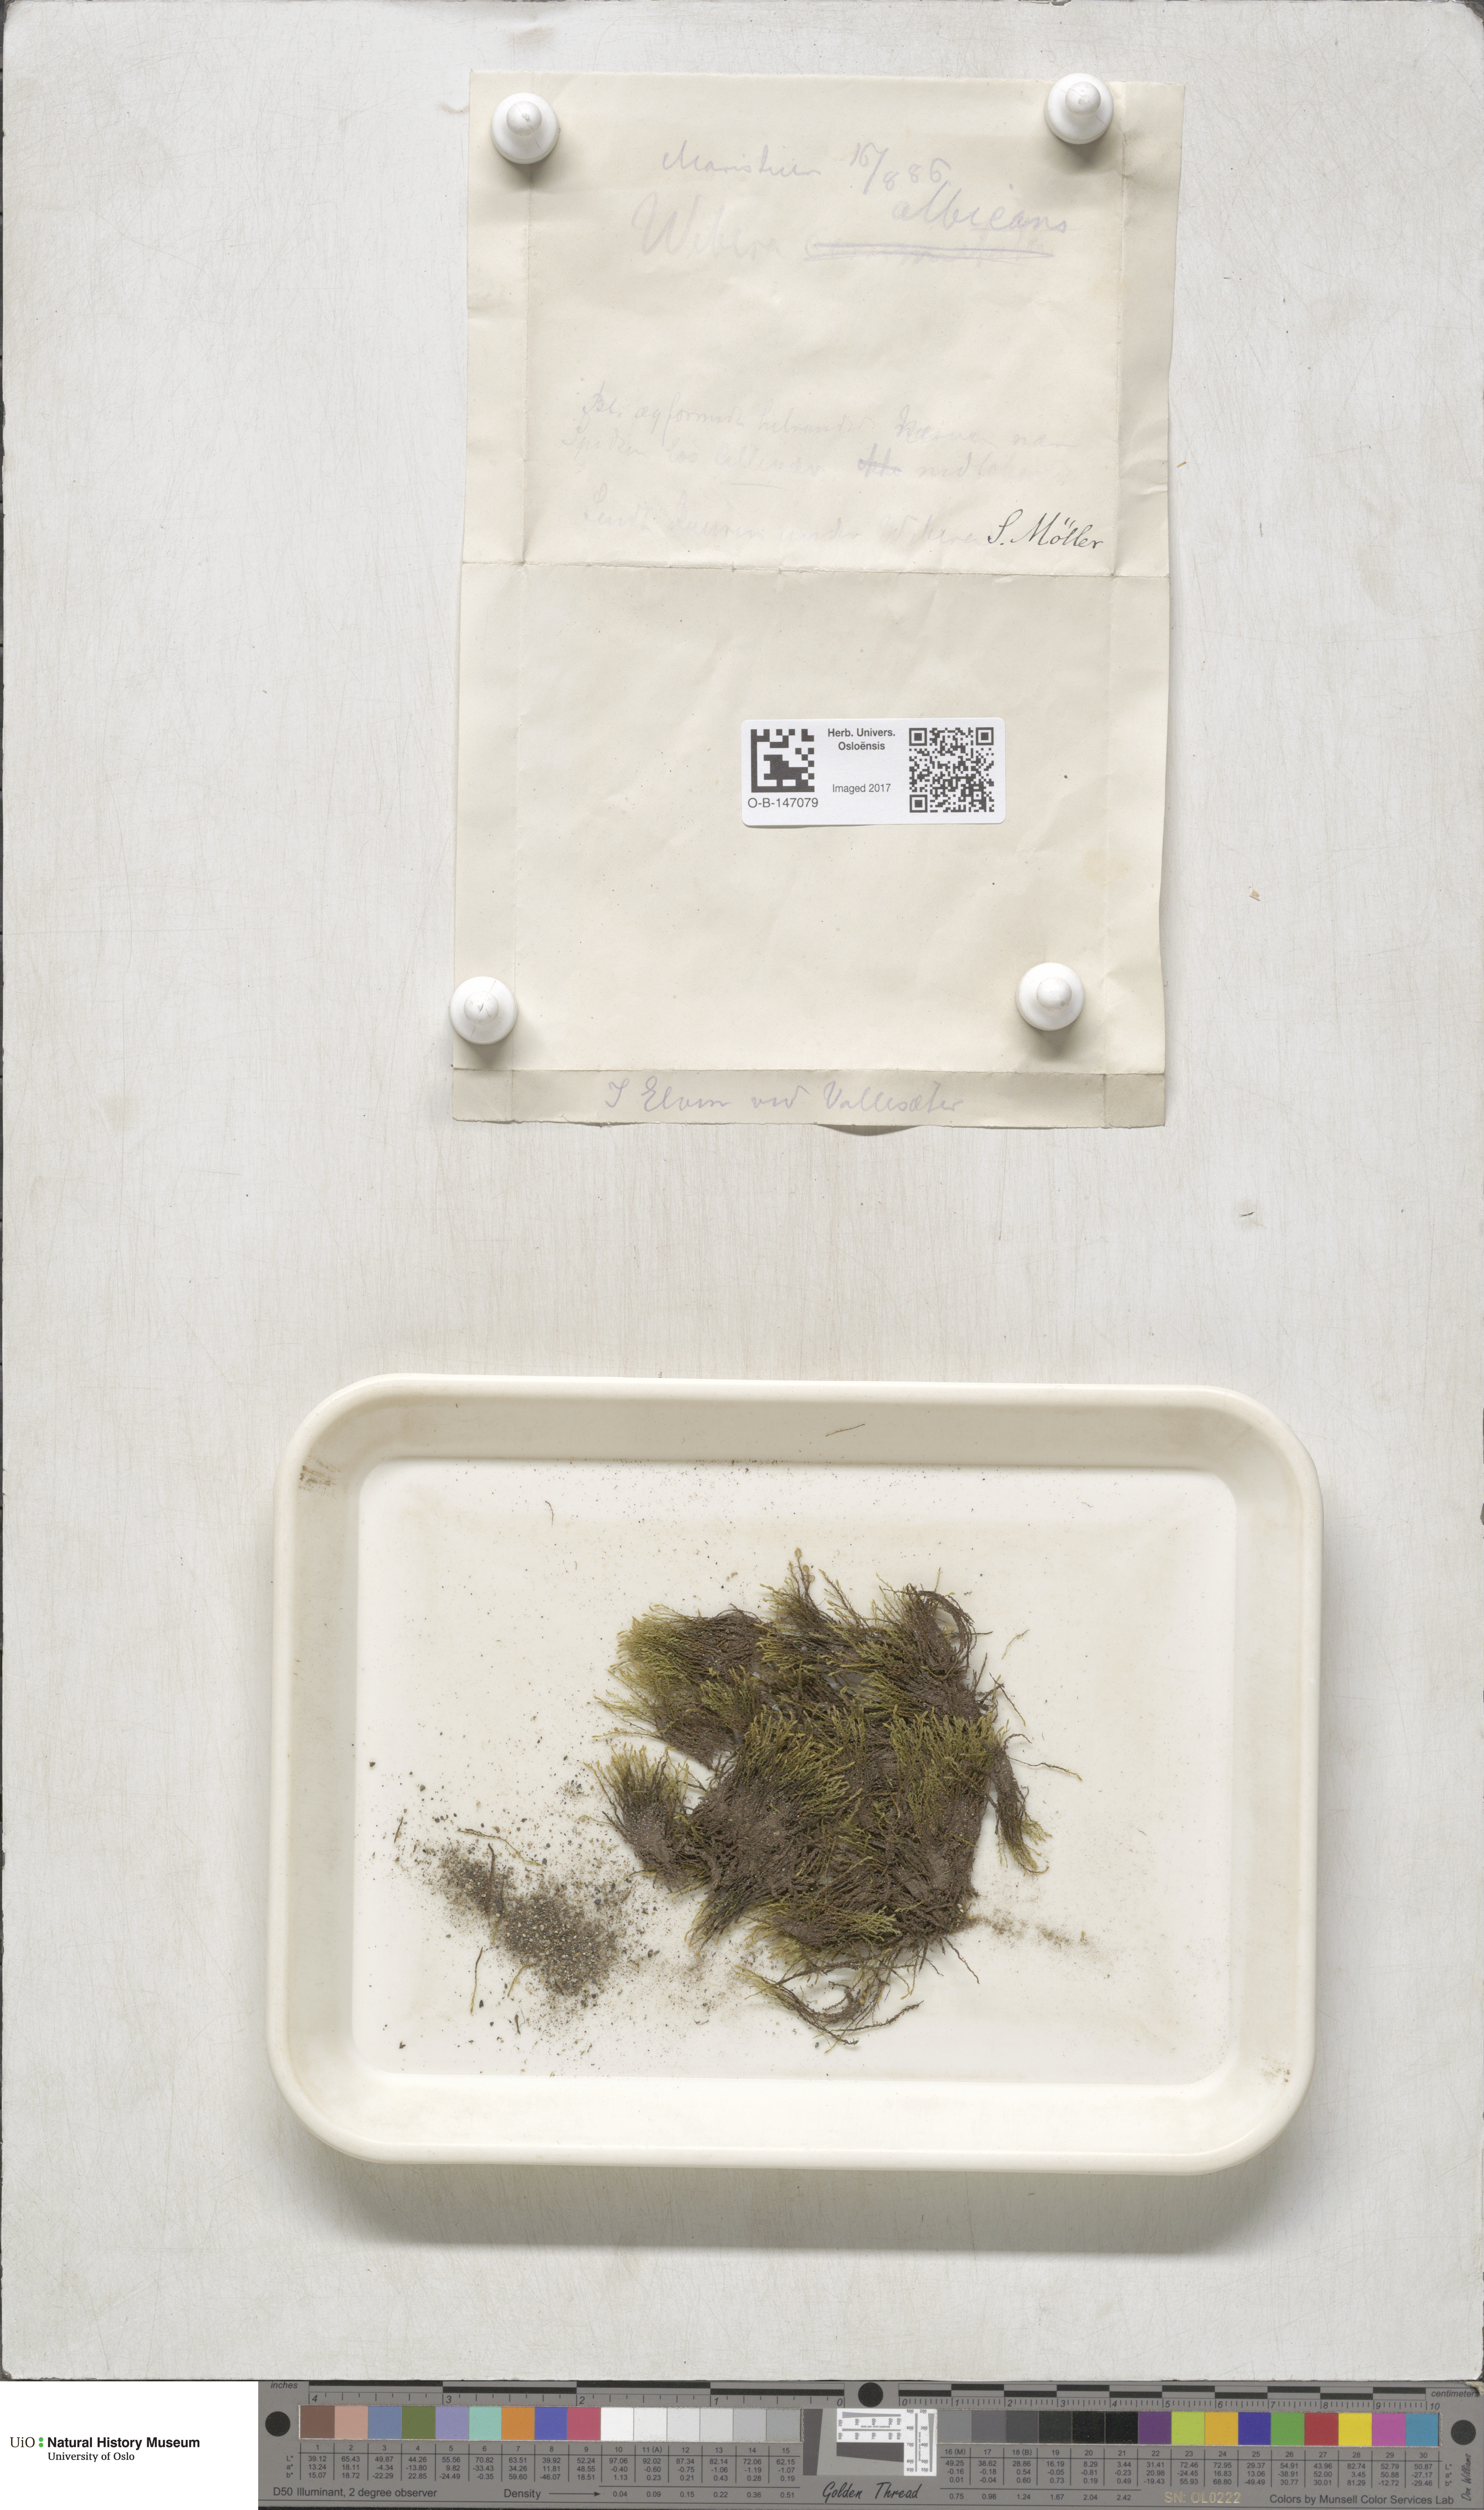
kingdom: Plantae
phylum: Bryophyta
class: Bryopsida
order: Bryales
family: Mniaceae
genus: Pohlia
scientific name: Pohlia wahlenbergii
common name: Wahlenberg's nodding moss
